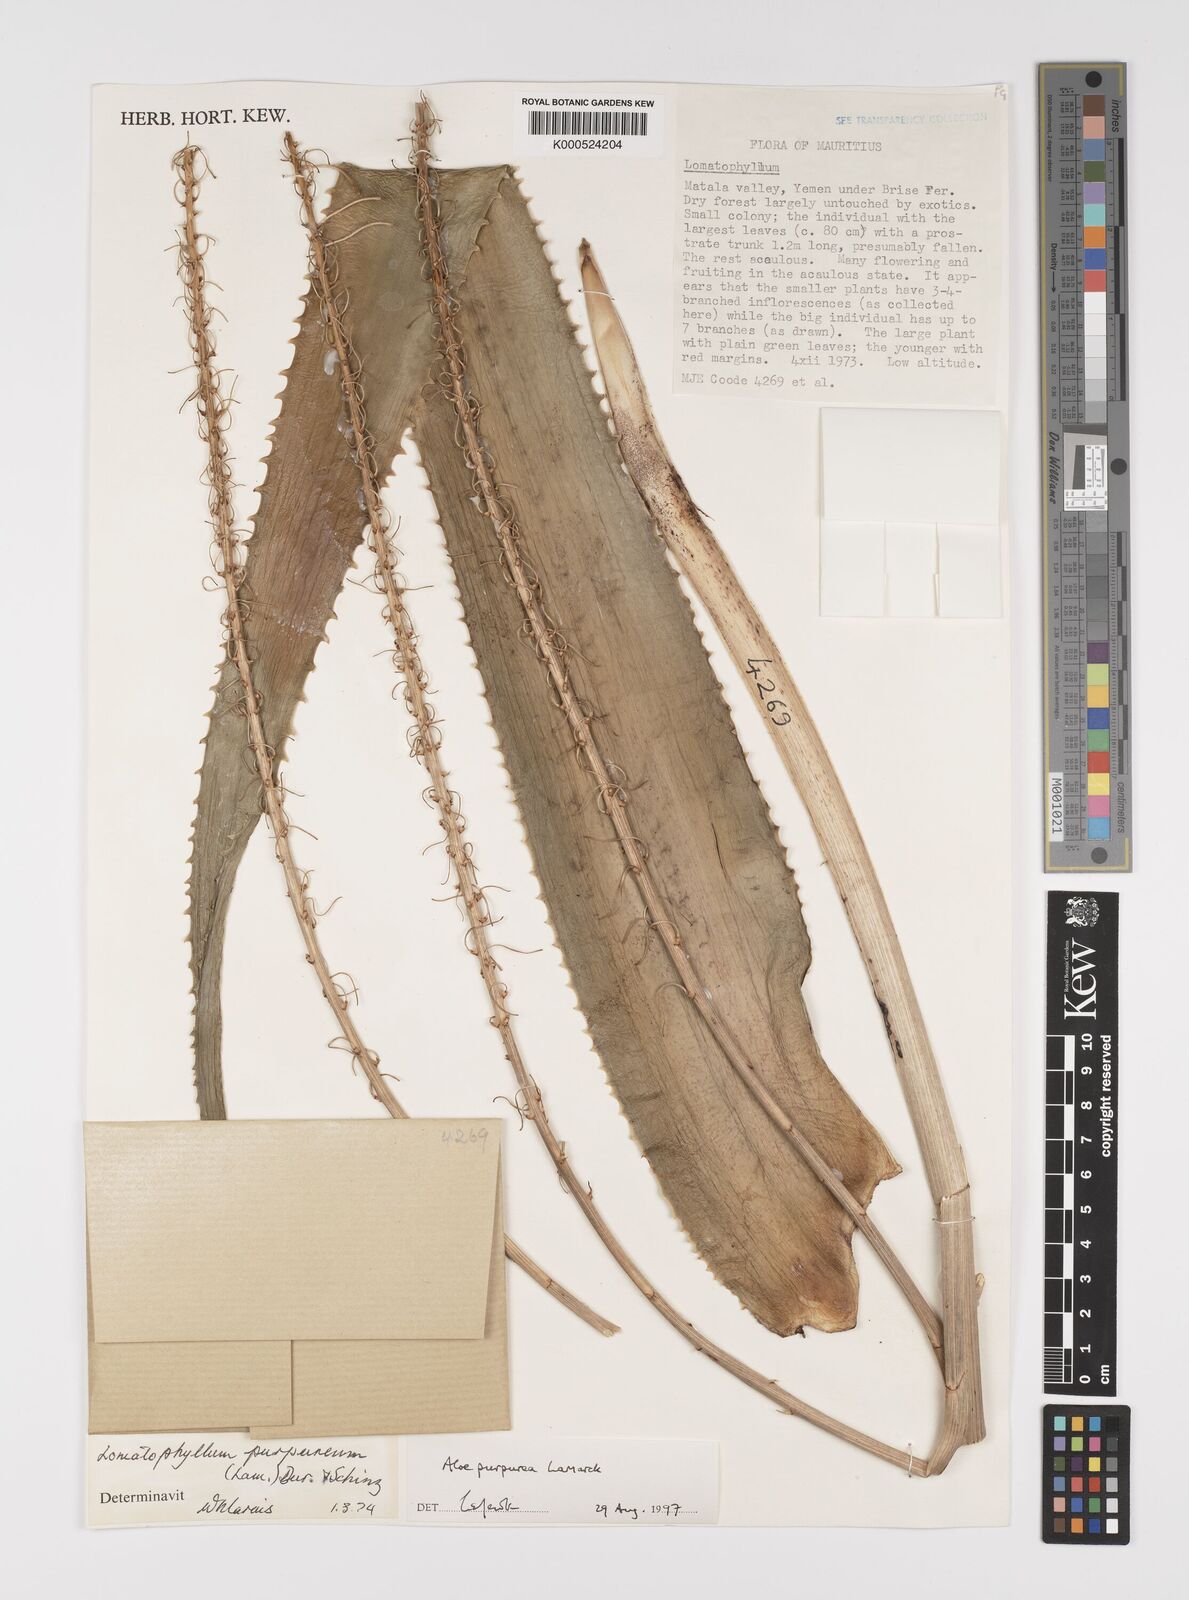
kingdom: Plantae
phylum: Tracheophyta
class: Liliopsida
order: Asparagales
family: Asphodelaceae
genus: Aloe
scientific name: Aloe purpurea
